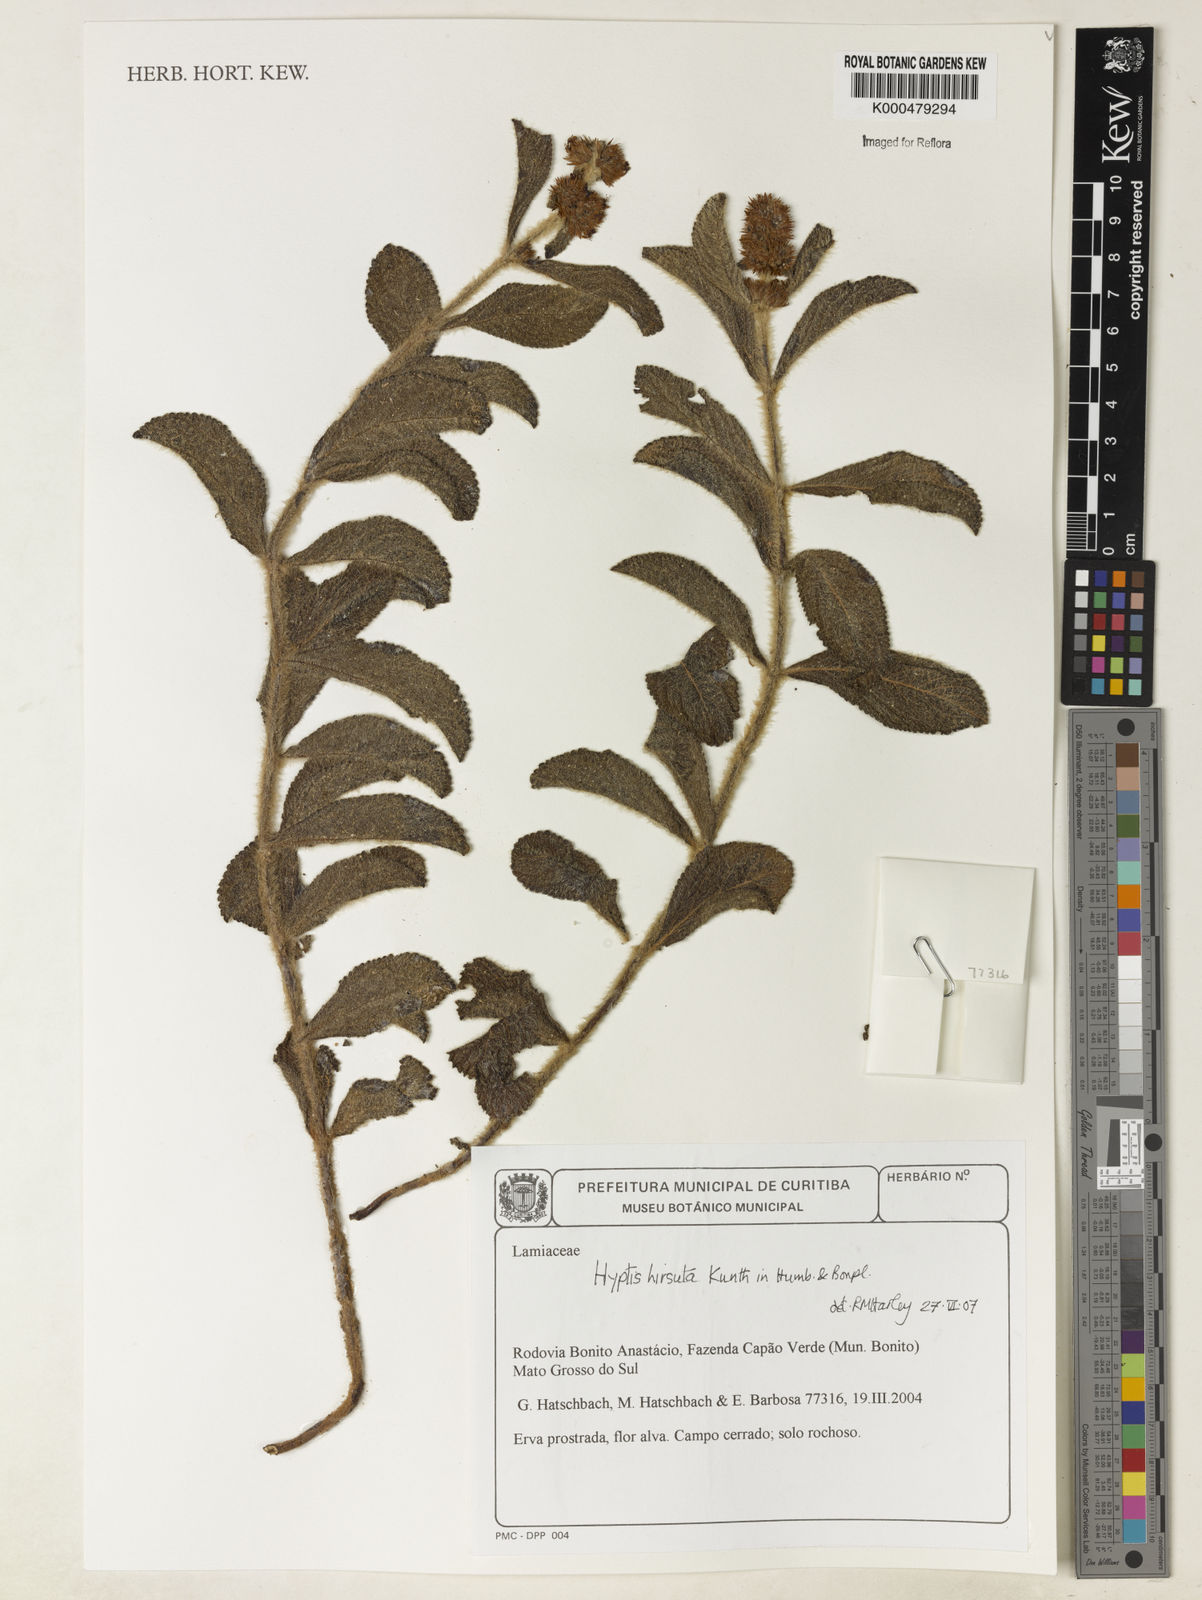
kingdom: Plantae
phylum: Tracheophyta
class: Magnoliopsida
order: Lamiales
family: Lamiaceae
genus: Hyptis
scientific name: Hyptis hirsuta
